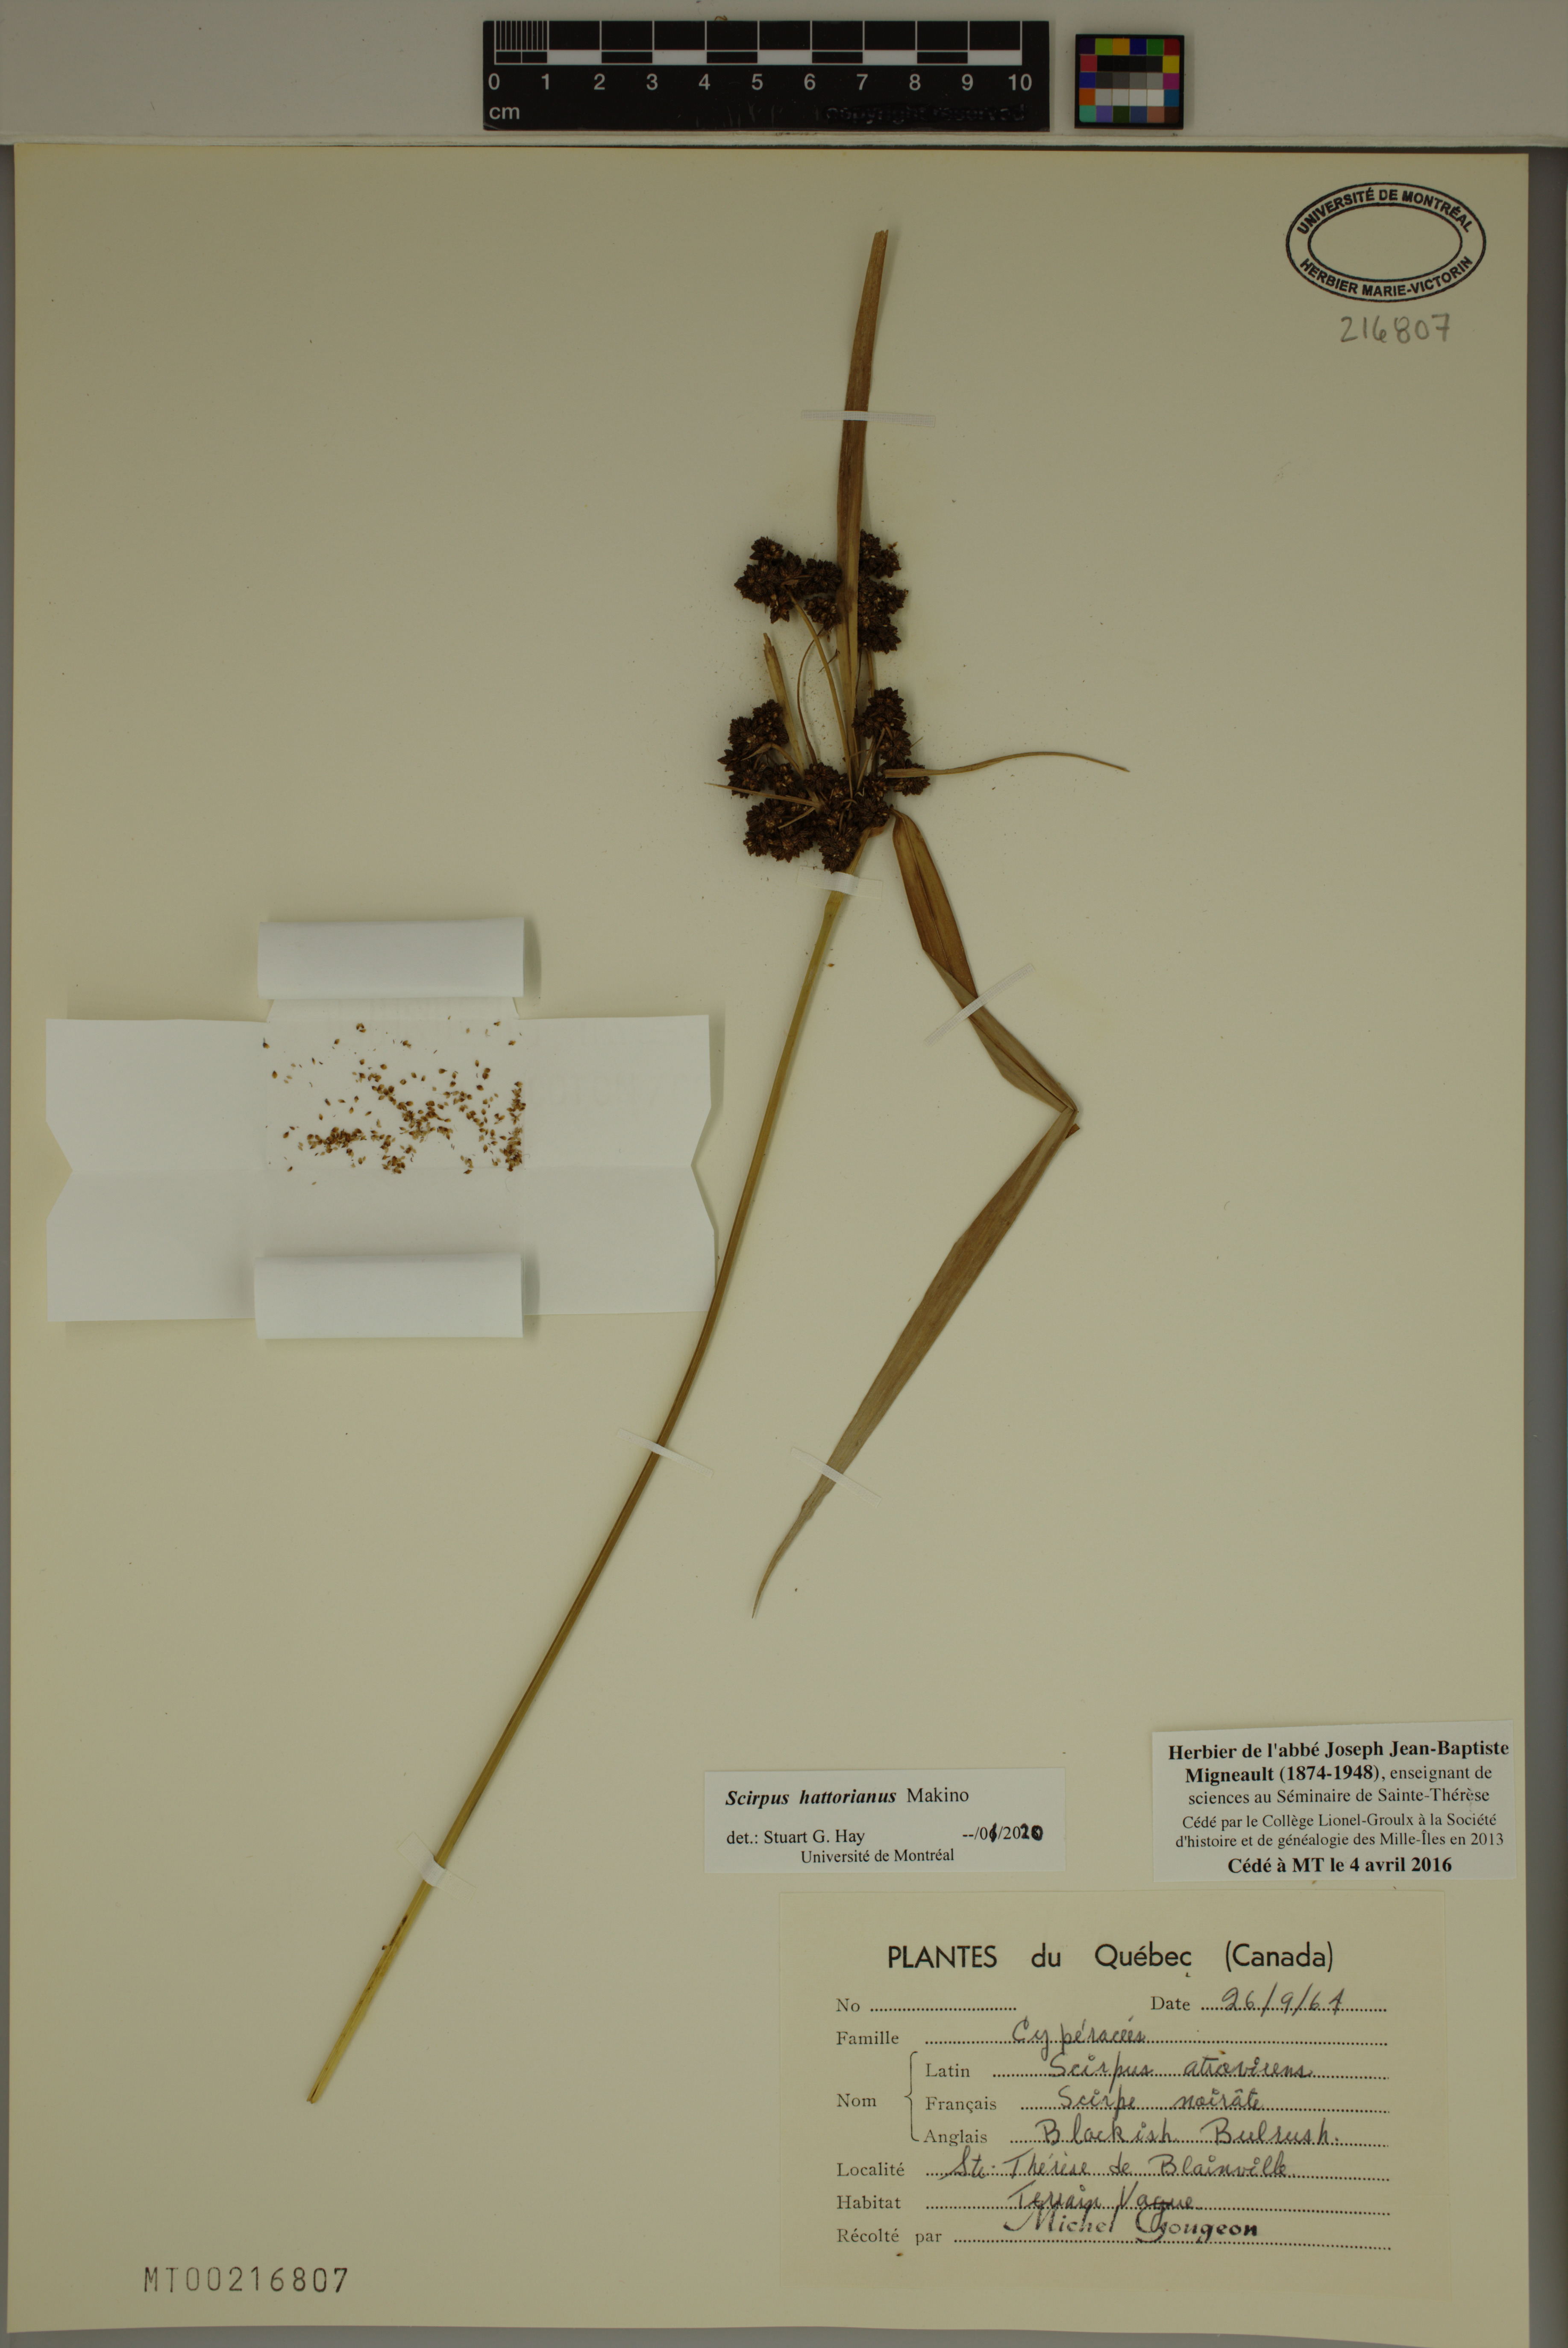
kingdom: Plantae
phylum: Tracheophyta
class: Liliopsida
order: Poales
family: Cyperaceae
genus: Scirpus
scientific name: Scirpus hattorianus
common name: Early dark-green bulrush
